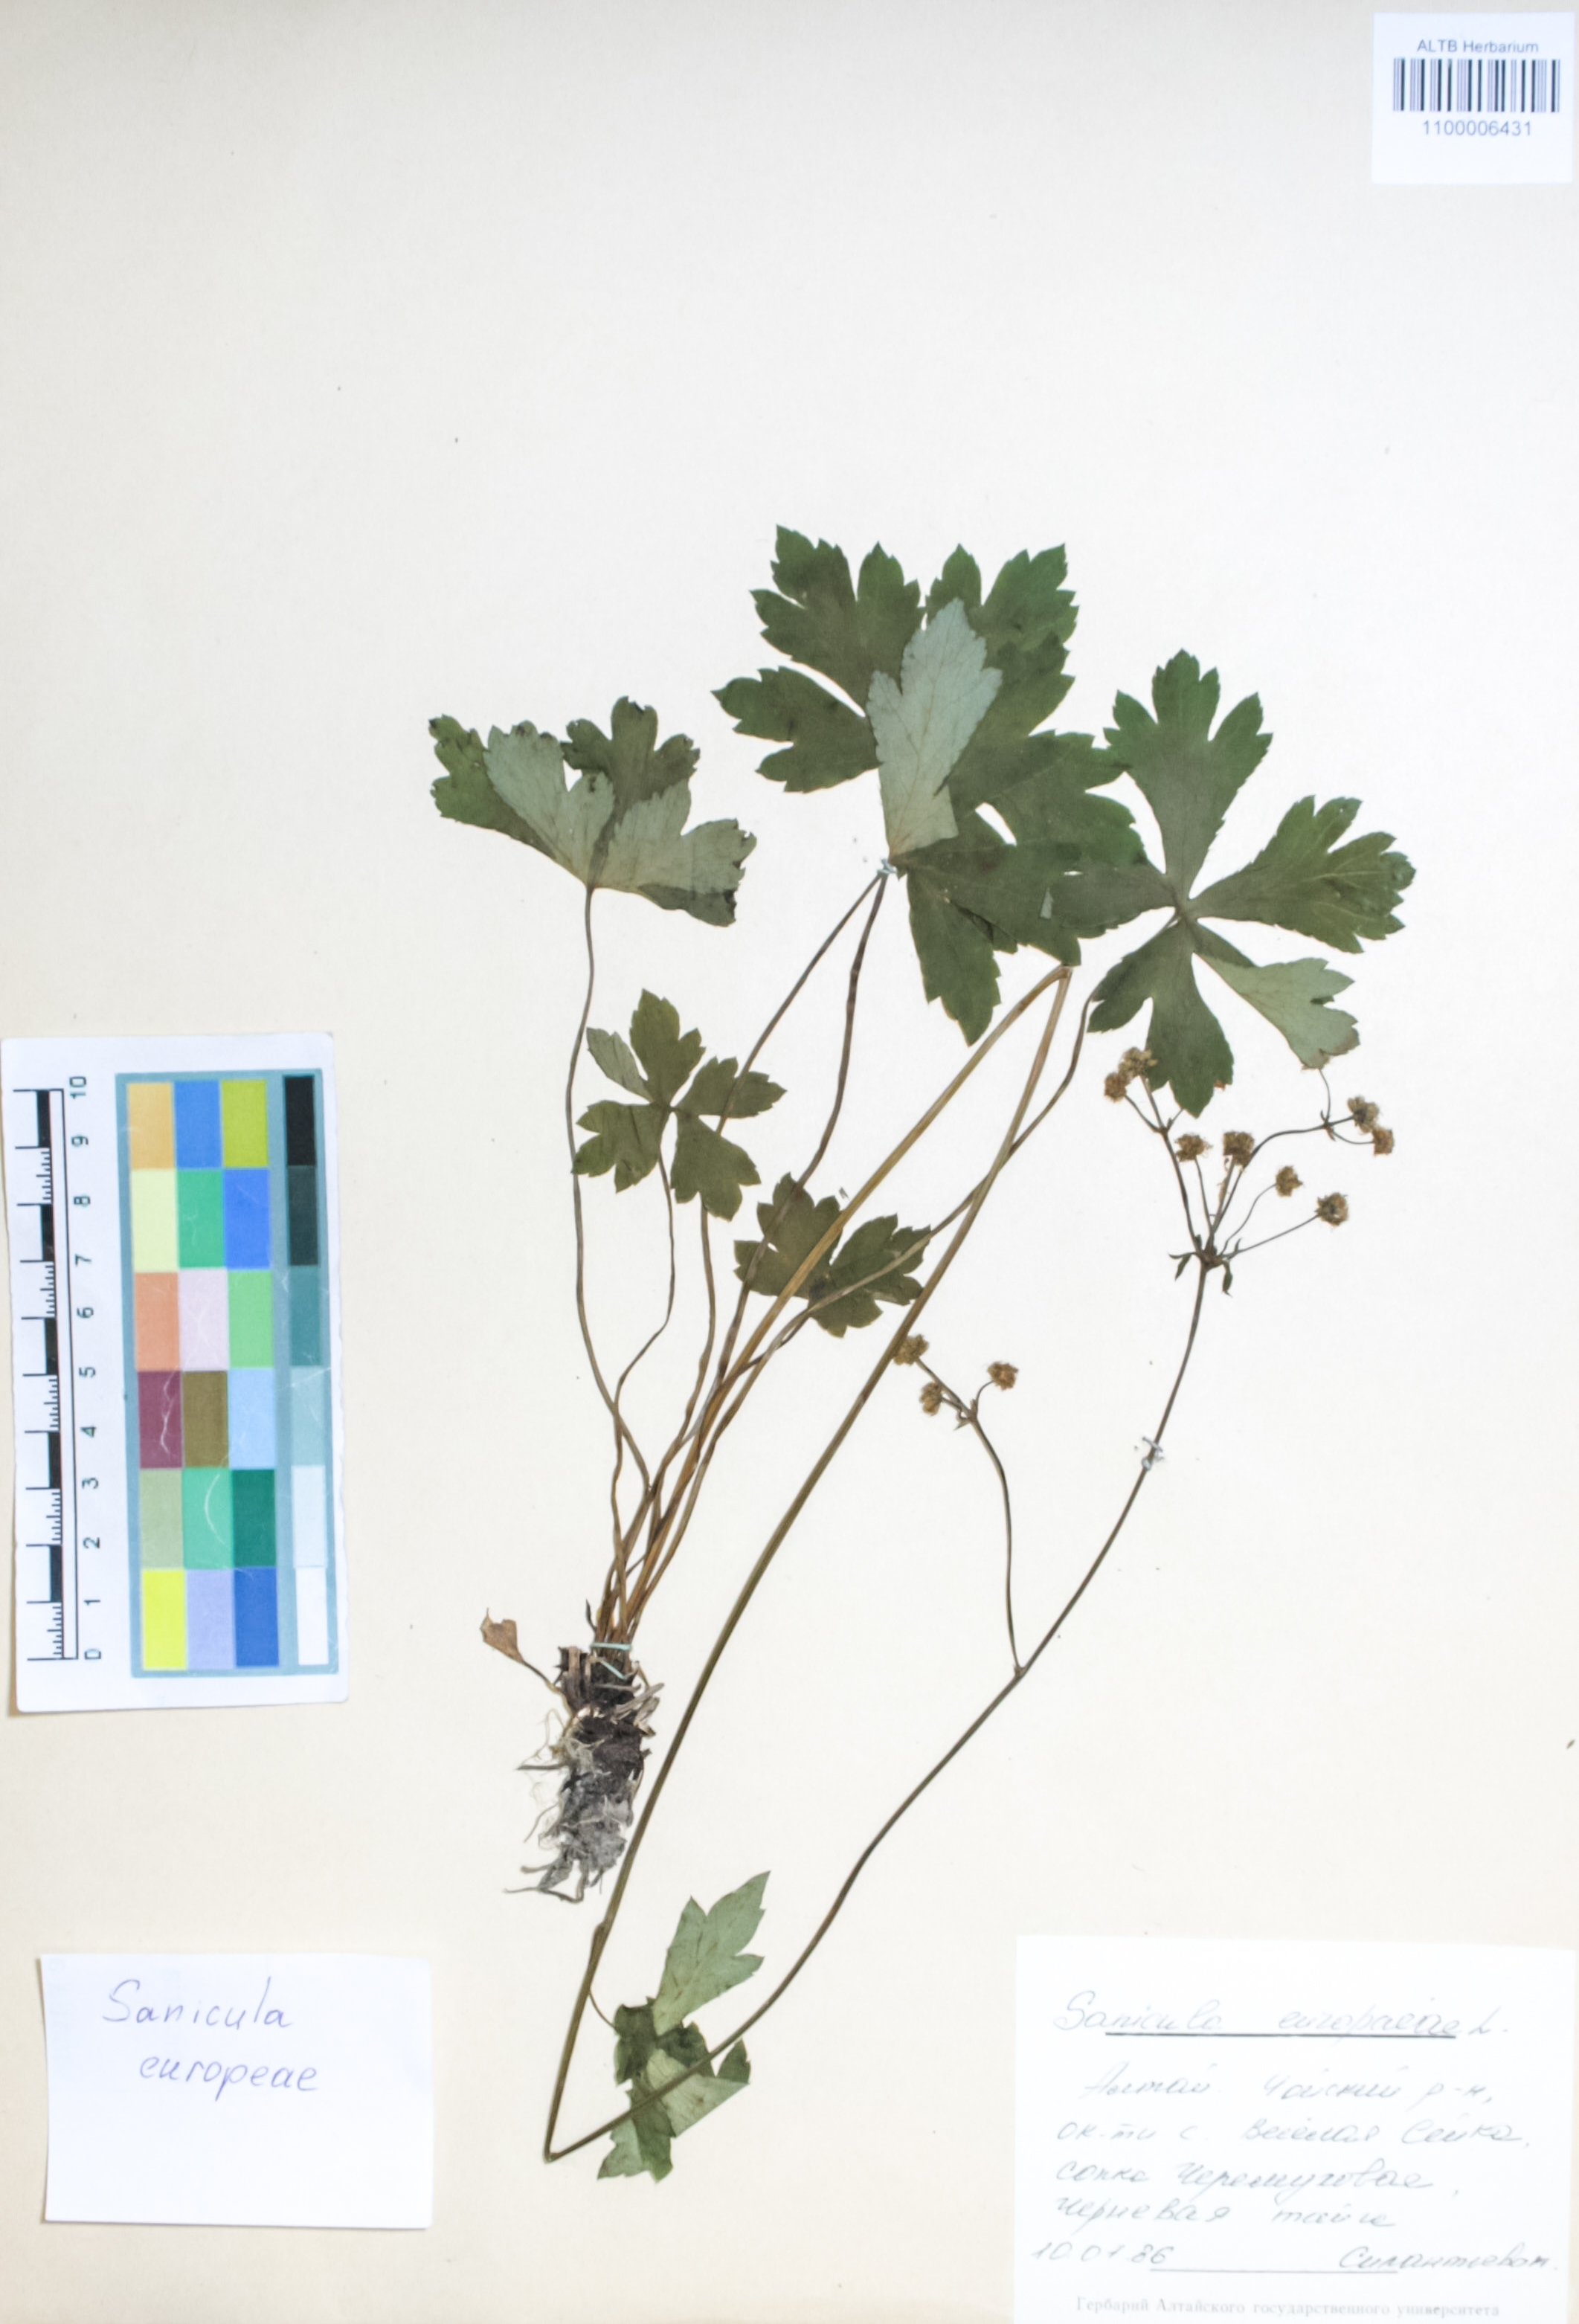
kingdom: Plantae
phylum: Tracheophyta
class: Magnoliopsida
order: Apiales
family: Apiaceae
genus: Sanicula
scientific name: Sanicula europaea
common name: Sanicle
